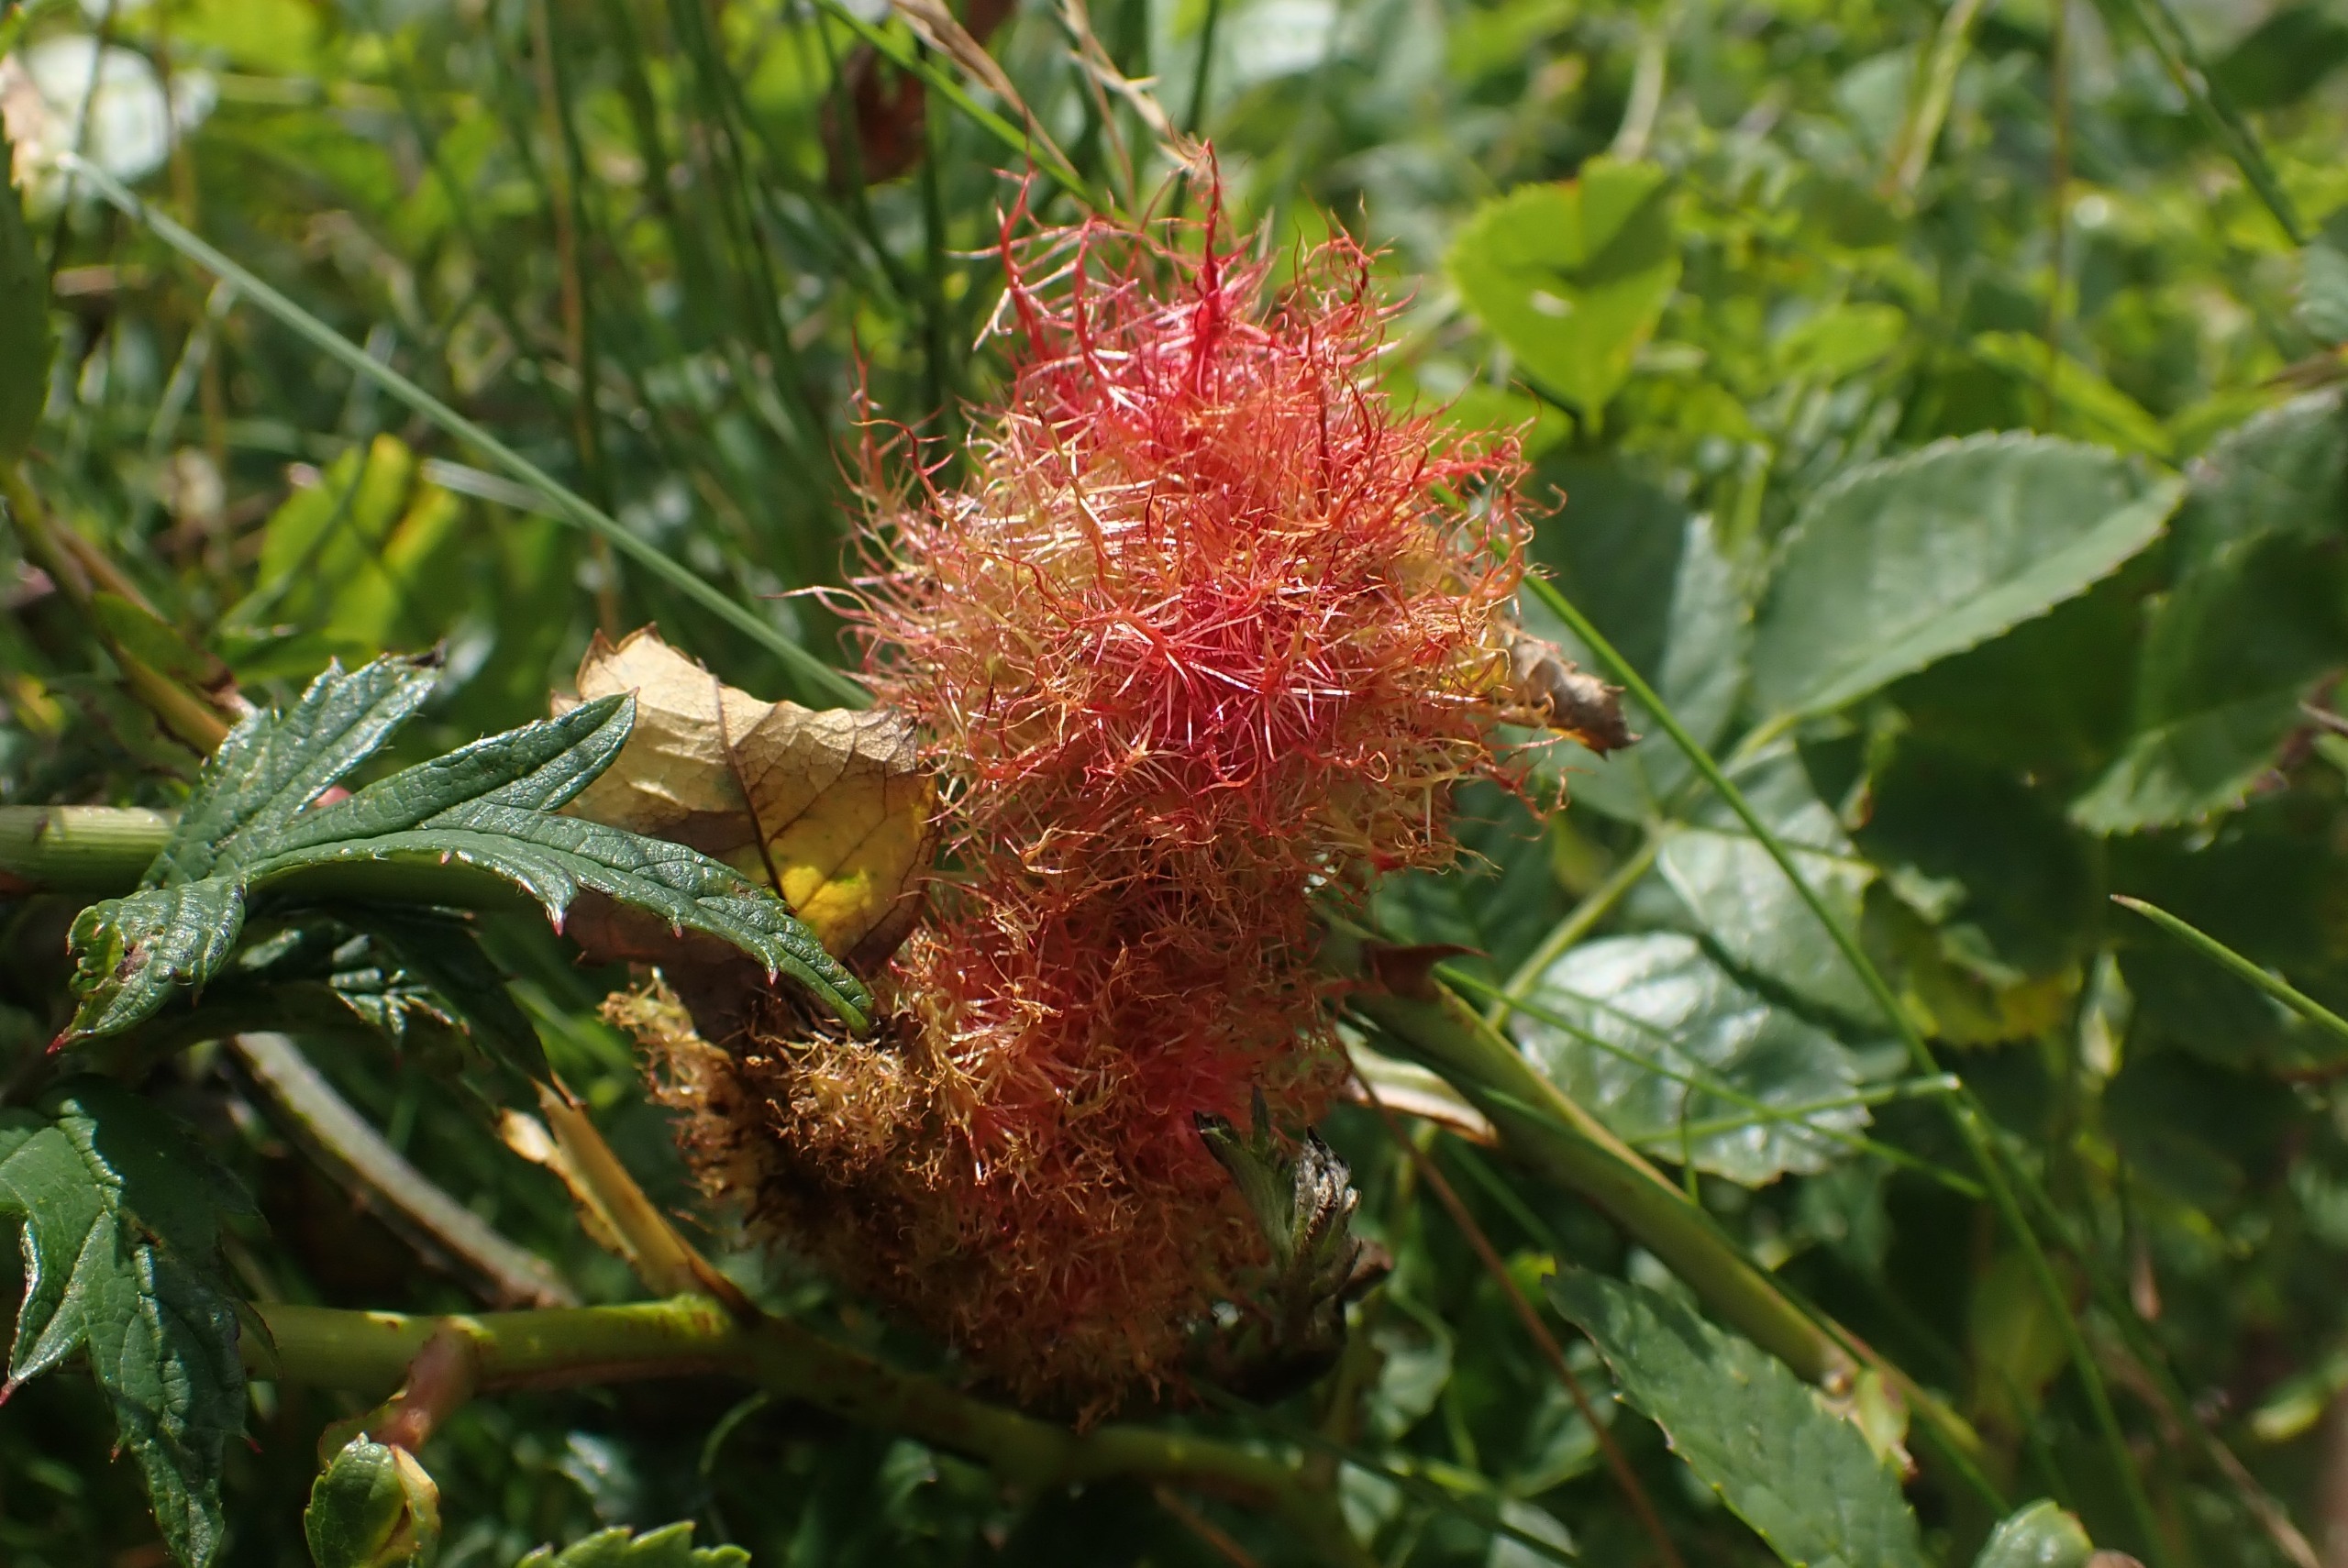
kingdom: Animalia
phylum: Arthropoda
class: Insecta
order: Hymenoptera
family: Cynipidae
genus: Diplolepis
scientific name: Diplolepis rosae
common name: Bedeguargalhveps
